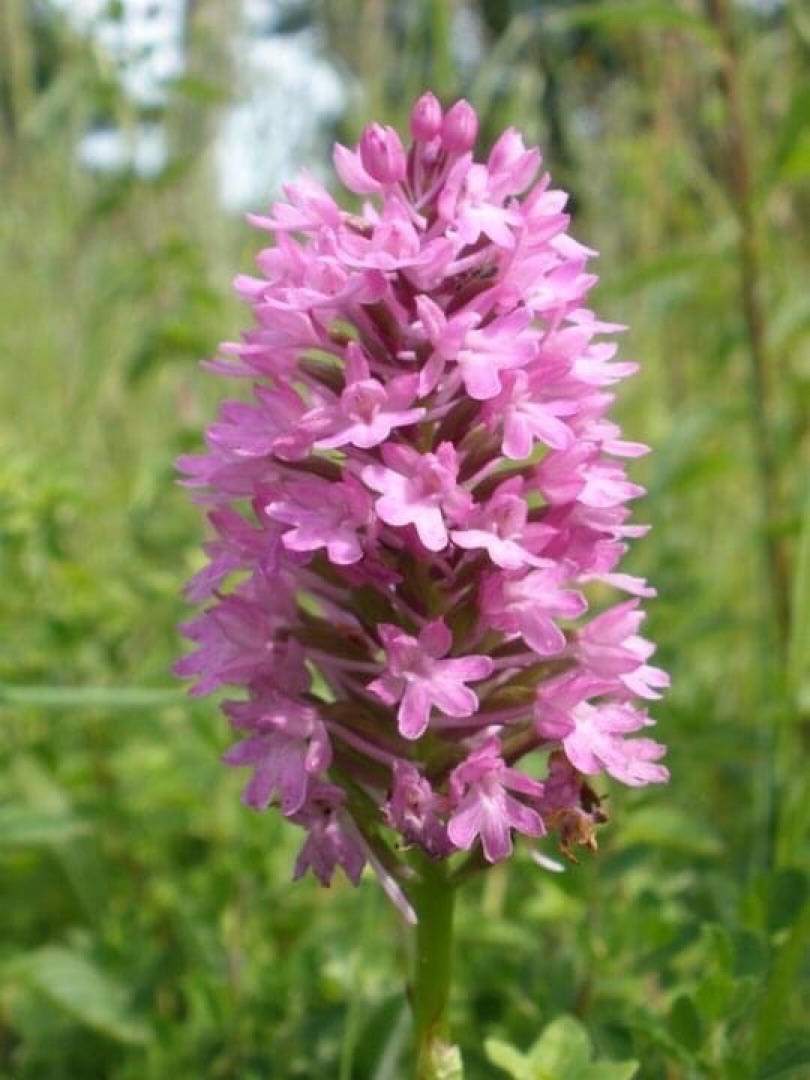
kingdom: Plantae
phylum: Tracheophyta
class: Liliopsida
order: Asparagales
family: Orchidaceae
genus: Anacamptis
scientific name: Anacamptis pyramidalis
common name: Horndrager
